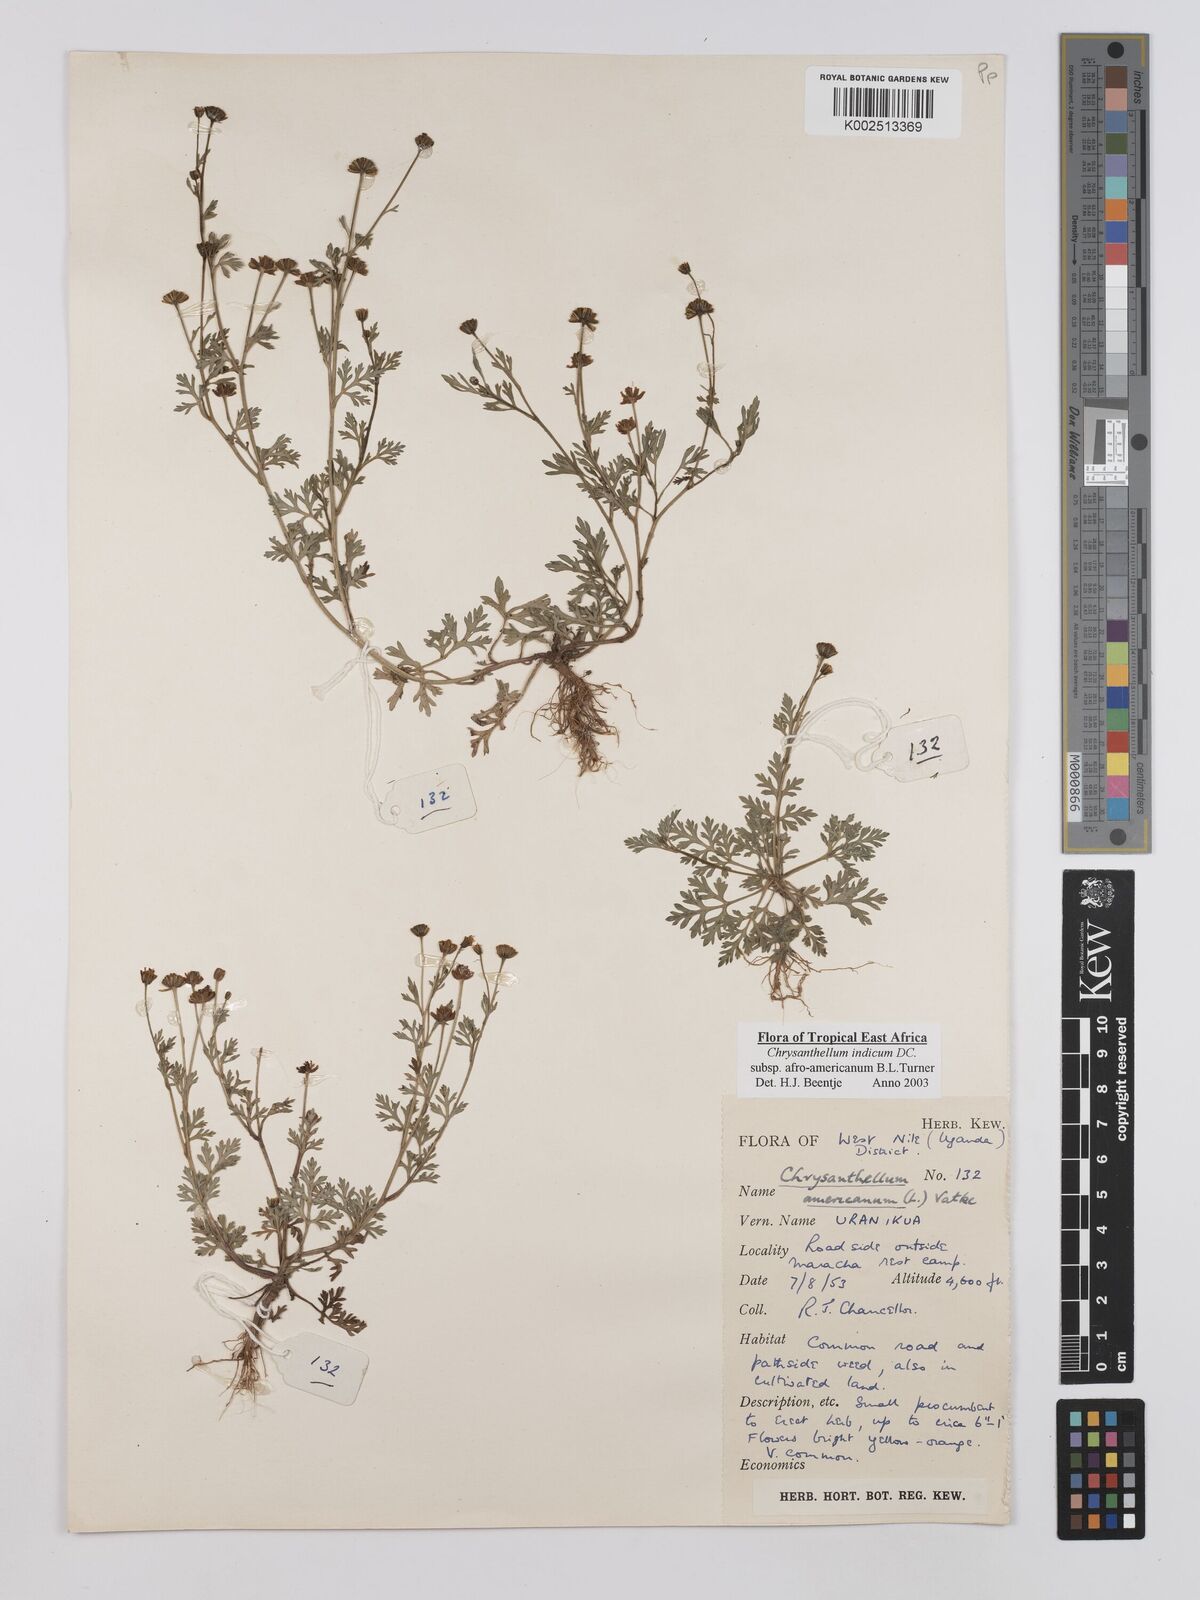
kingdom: Plantae
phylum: Tracheophyta
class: Magnoliopsida
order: Asterales
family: Asteraceae
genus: Chrysanthellum
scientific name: Chrysanthellum indicum
